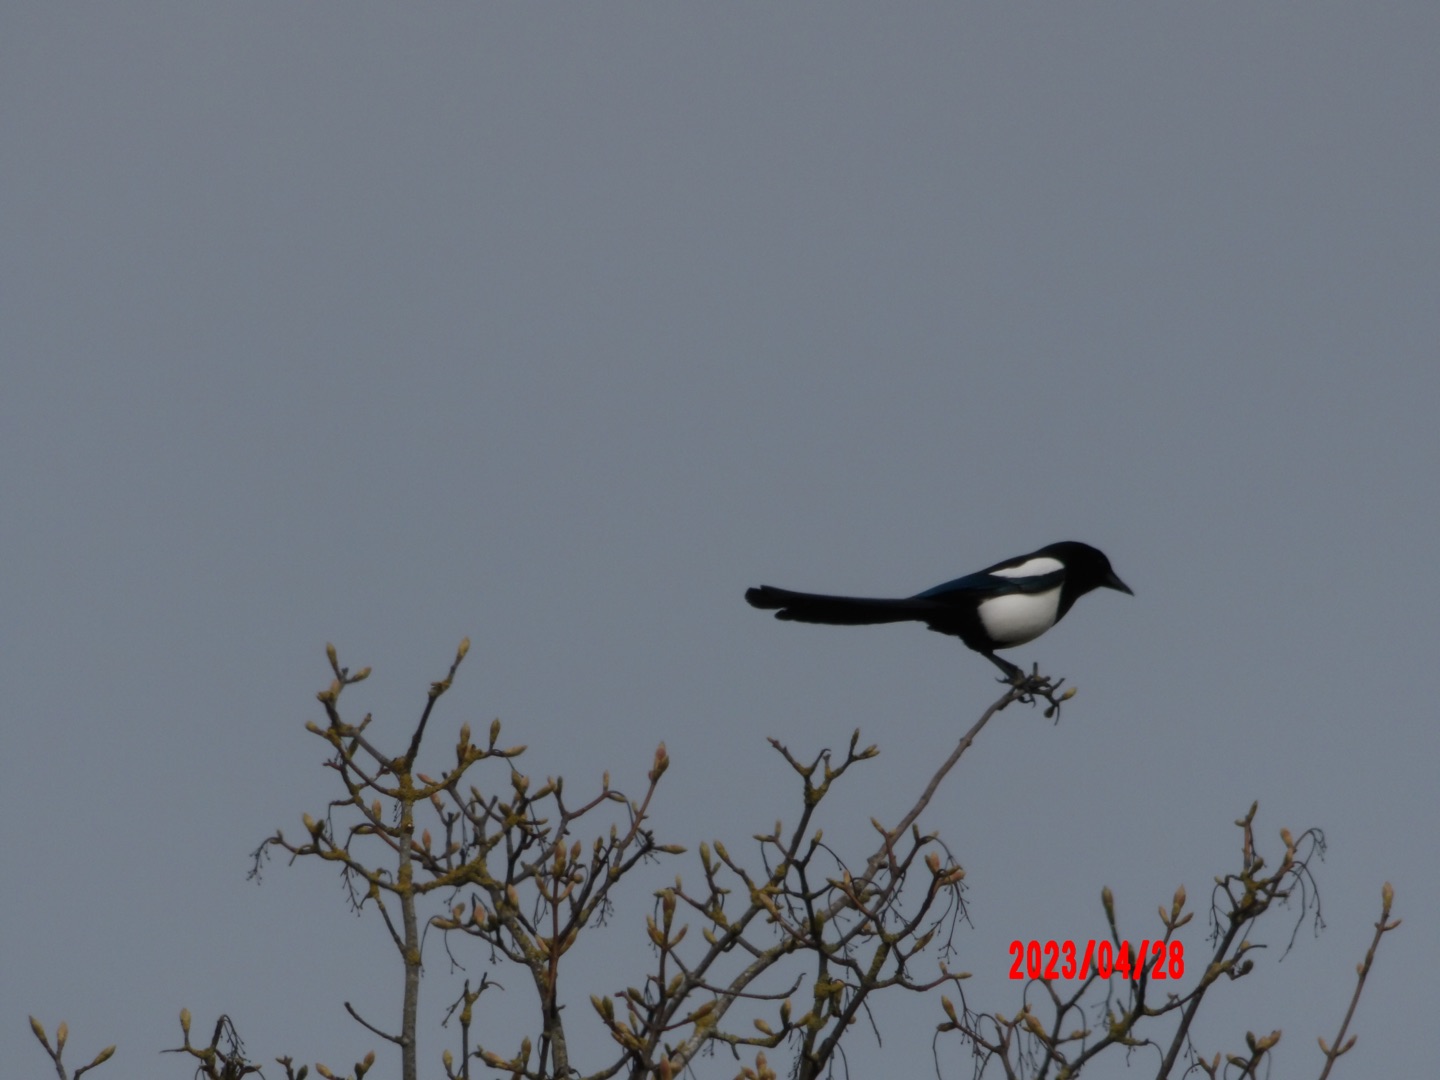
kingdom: Animalia
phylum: Chordata
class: Aves
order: Passeriformes
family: Corvidae
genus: Pica
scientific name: Pica pica
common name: Husskade
